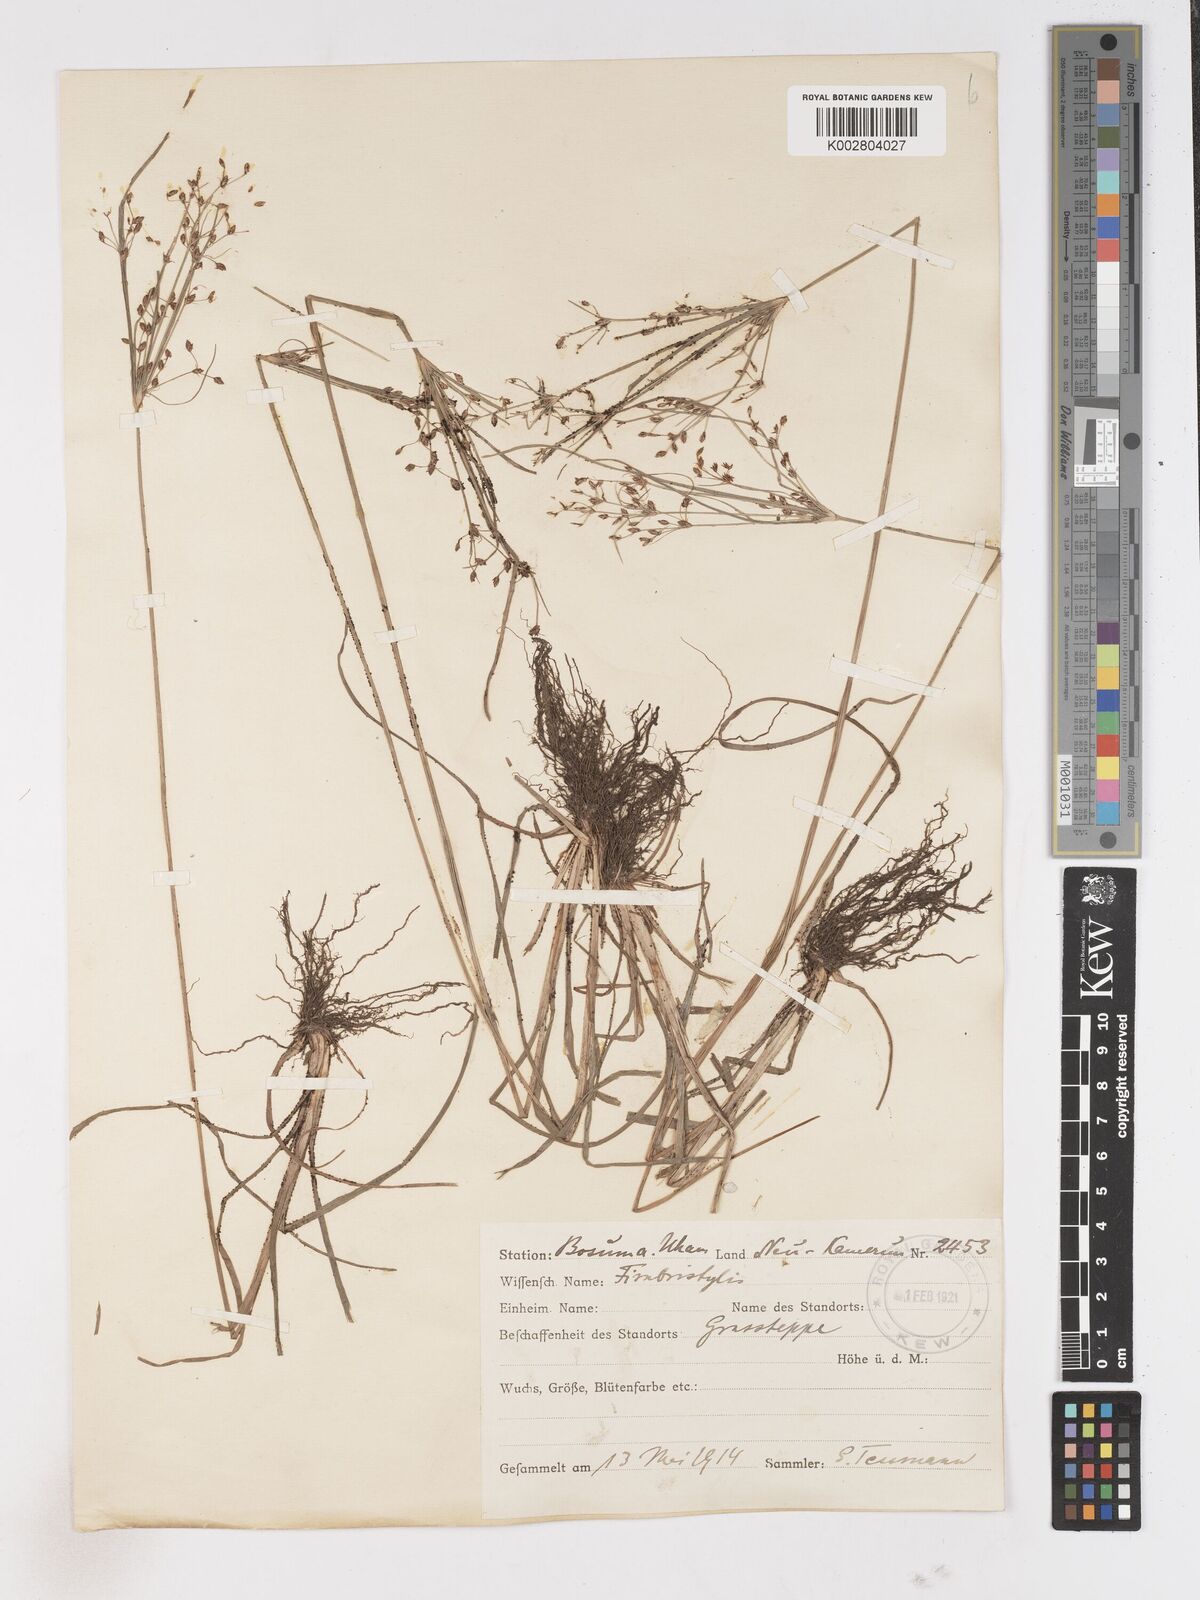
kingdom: Plantae
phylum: Tracheophyta
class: Liliopsida
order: Poales
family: Cyperaceae
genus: Fimbristylis
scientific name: Fimbristylis dichotoma
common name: Forked fimbry
